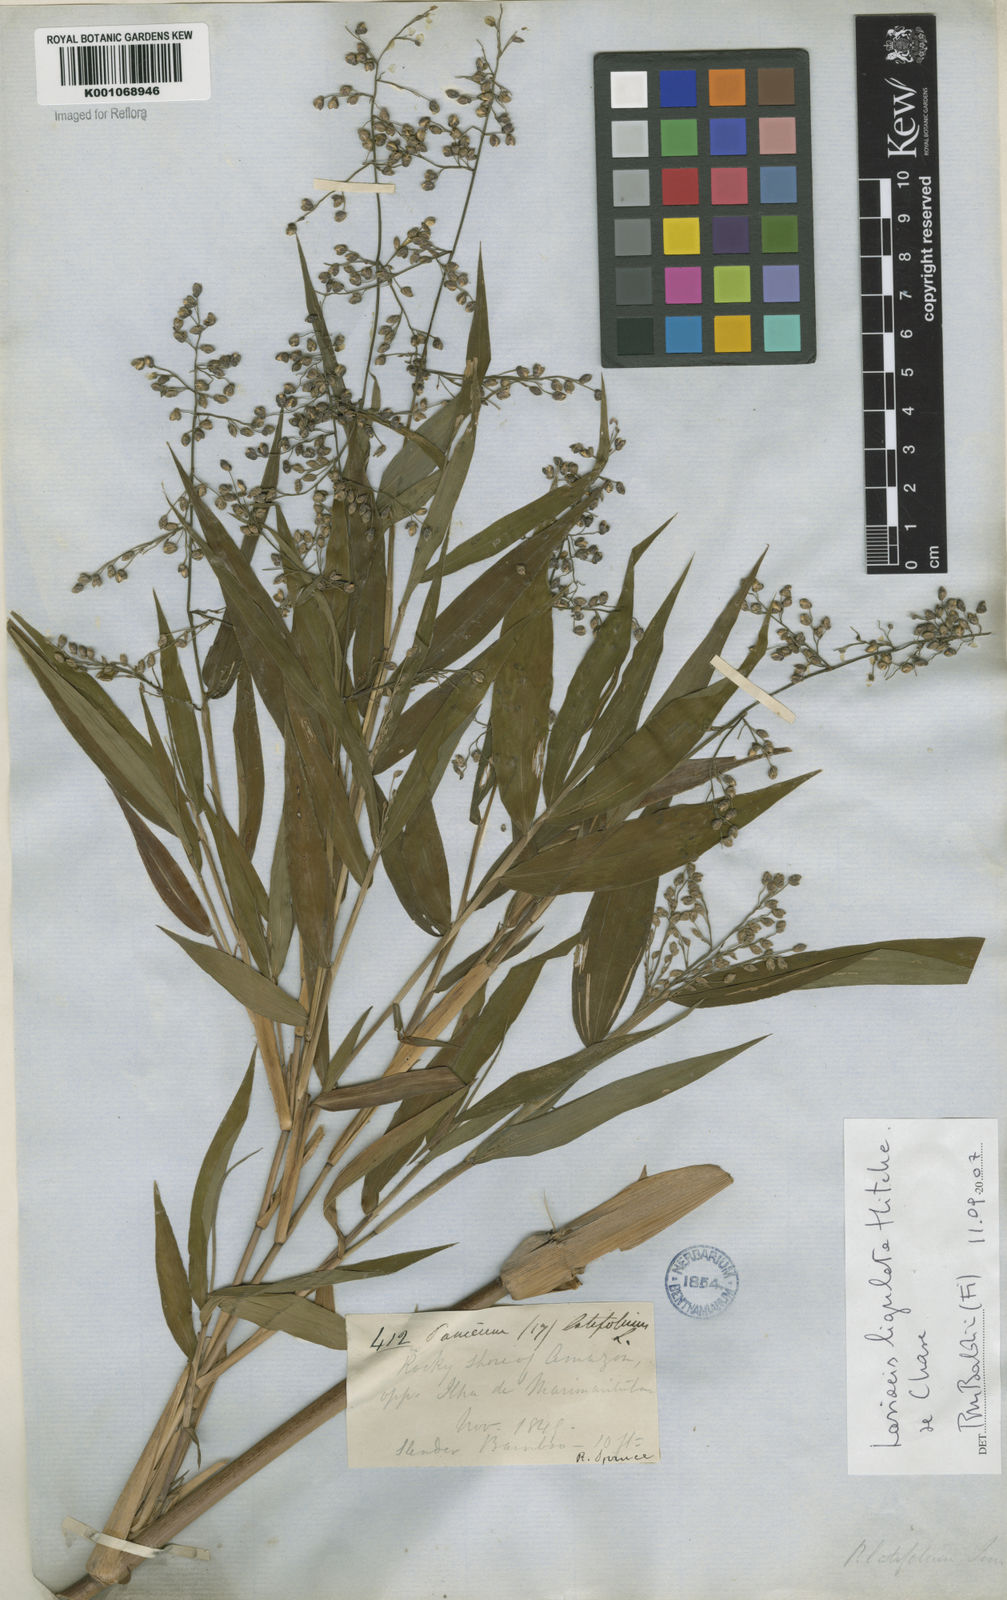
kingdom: Plantae
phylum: Tracheophyta
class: Liliopsida
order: Poales
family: Poaceae
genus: Lasiacis
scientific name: Lasiacis ligulata
